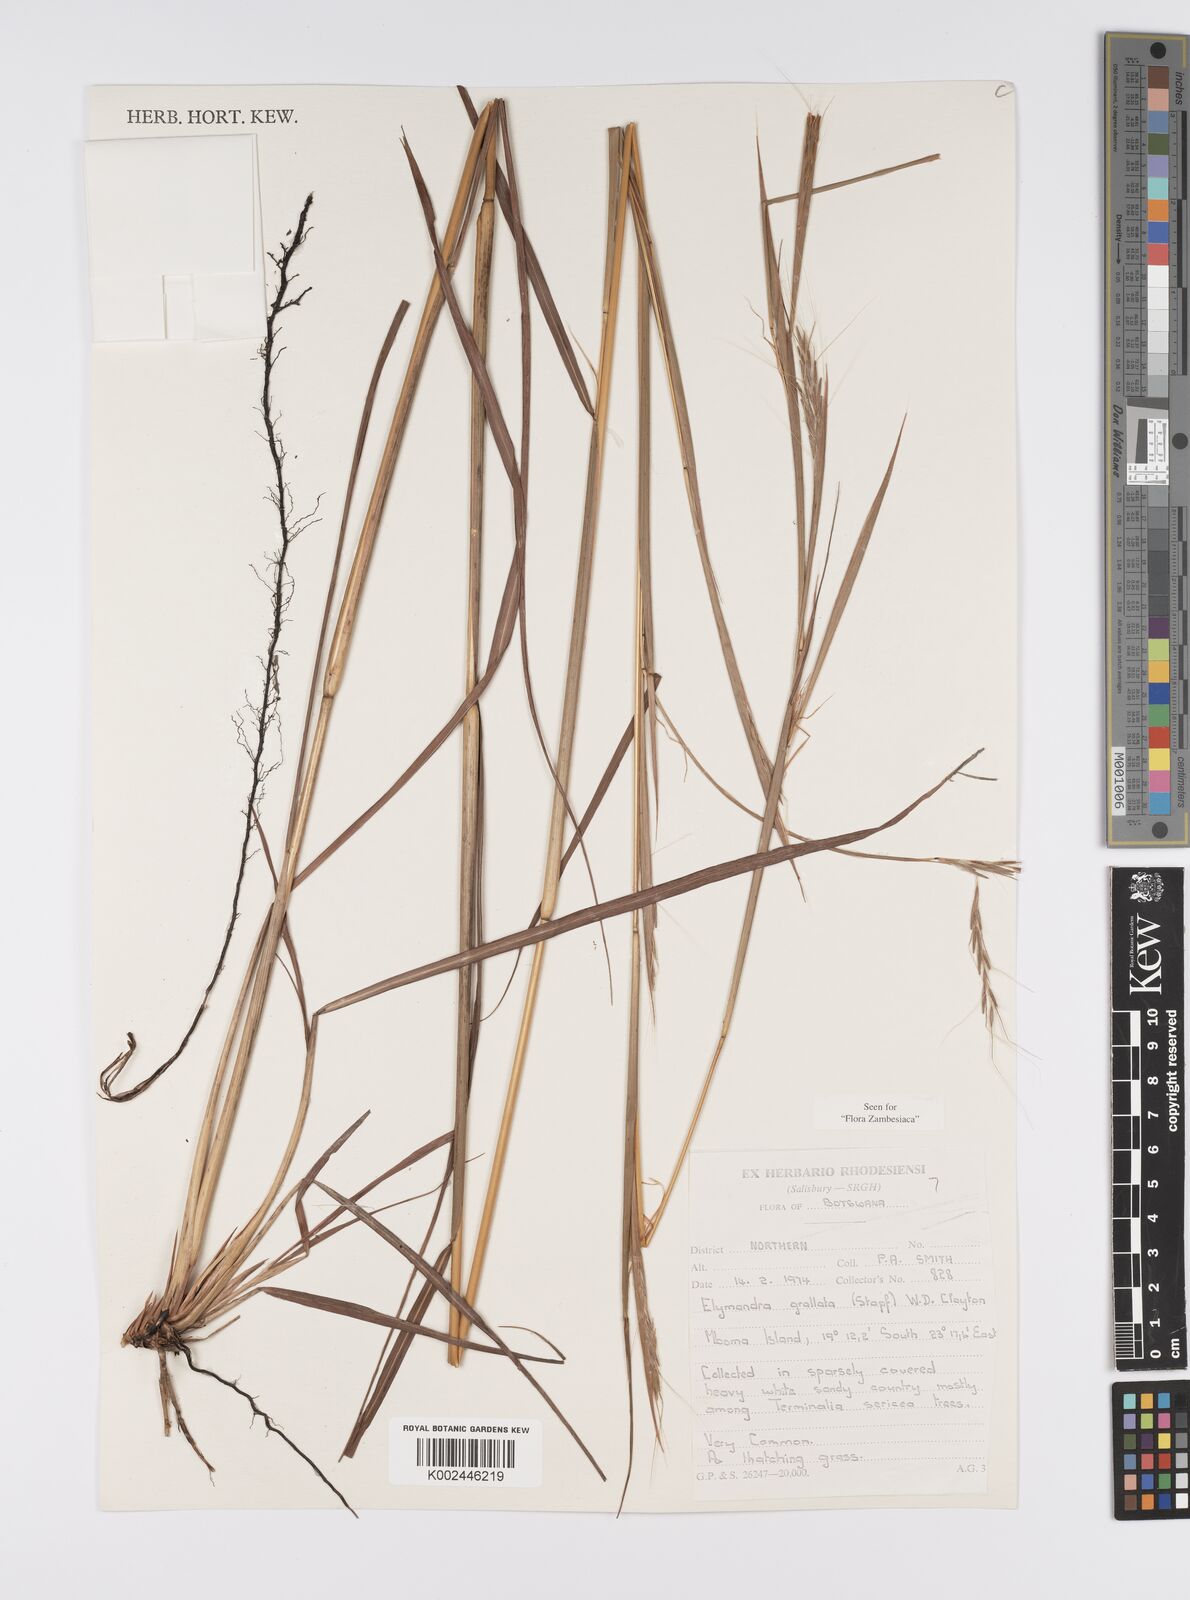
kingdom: Plantae
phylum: Tracheophyta
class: Liliopsida
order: Poales
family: Poaceae
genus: Elymandra
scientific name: Elymandra grallata
